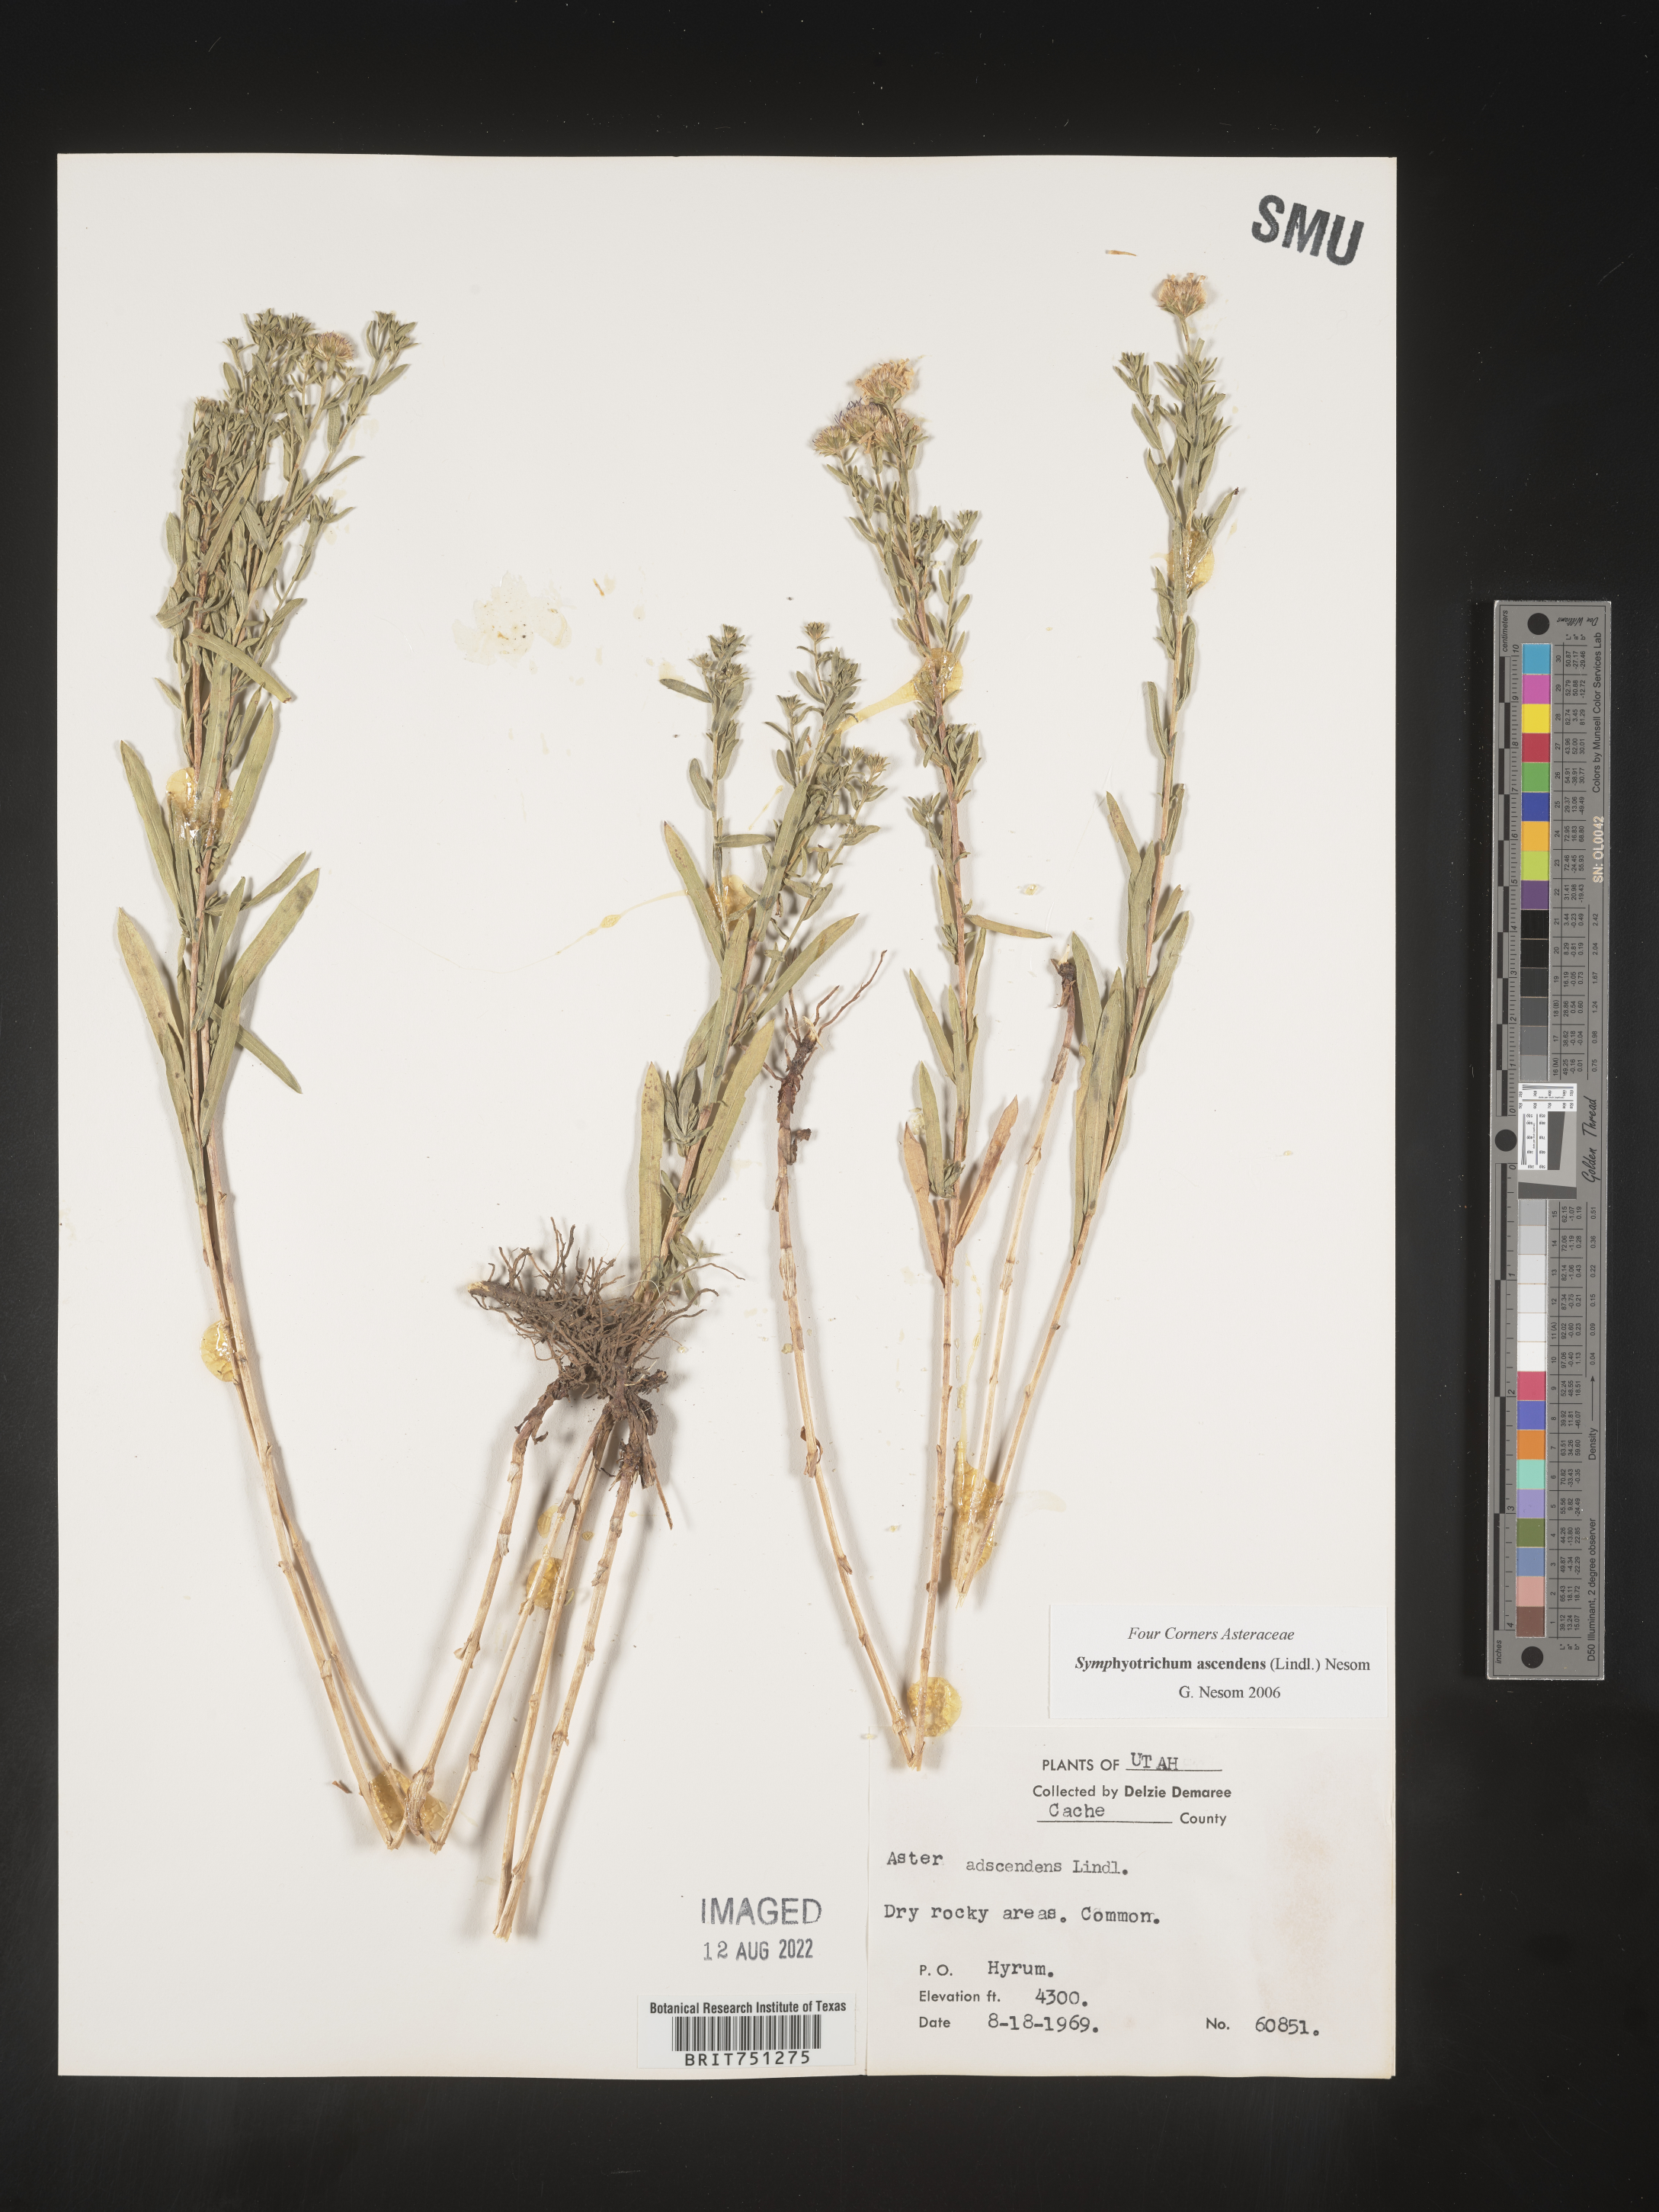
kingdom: Plantae
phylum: Tracheophyta
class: Magnoliopsida
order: Asterales
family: Asteraceae
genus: Symphyotrichum
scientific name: Symphyotrichum ascendens
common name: Intermountain aster
